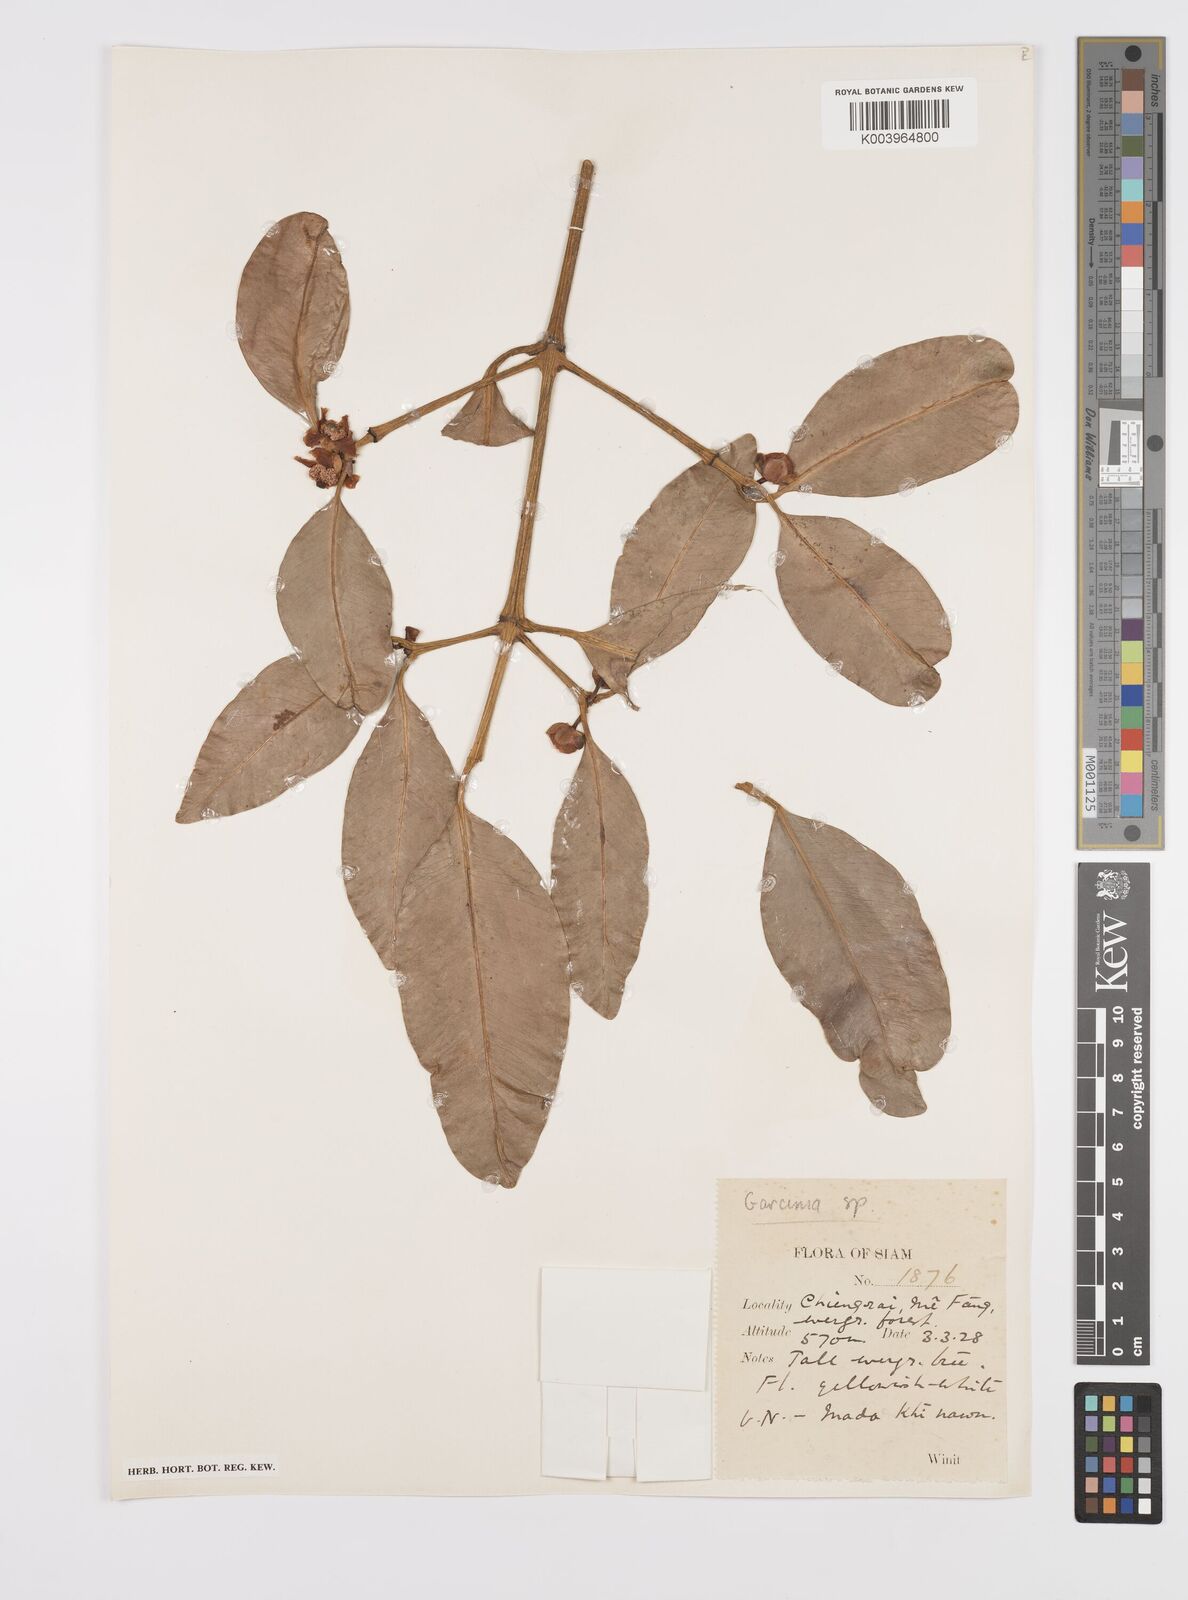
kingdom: Plantae
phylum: Tracheophyta
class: Magnoliopsida
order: Malpighiales
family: Clusiaceae
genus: Garcinia
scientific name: Garcinia
